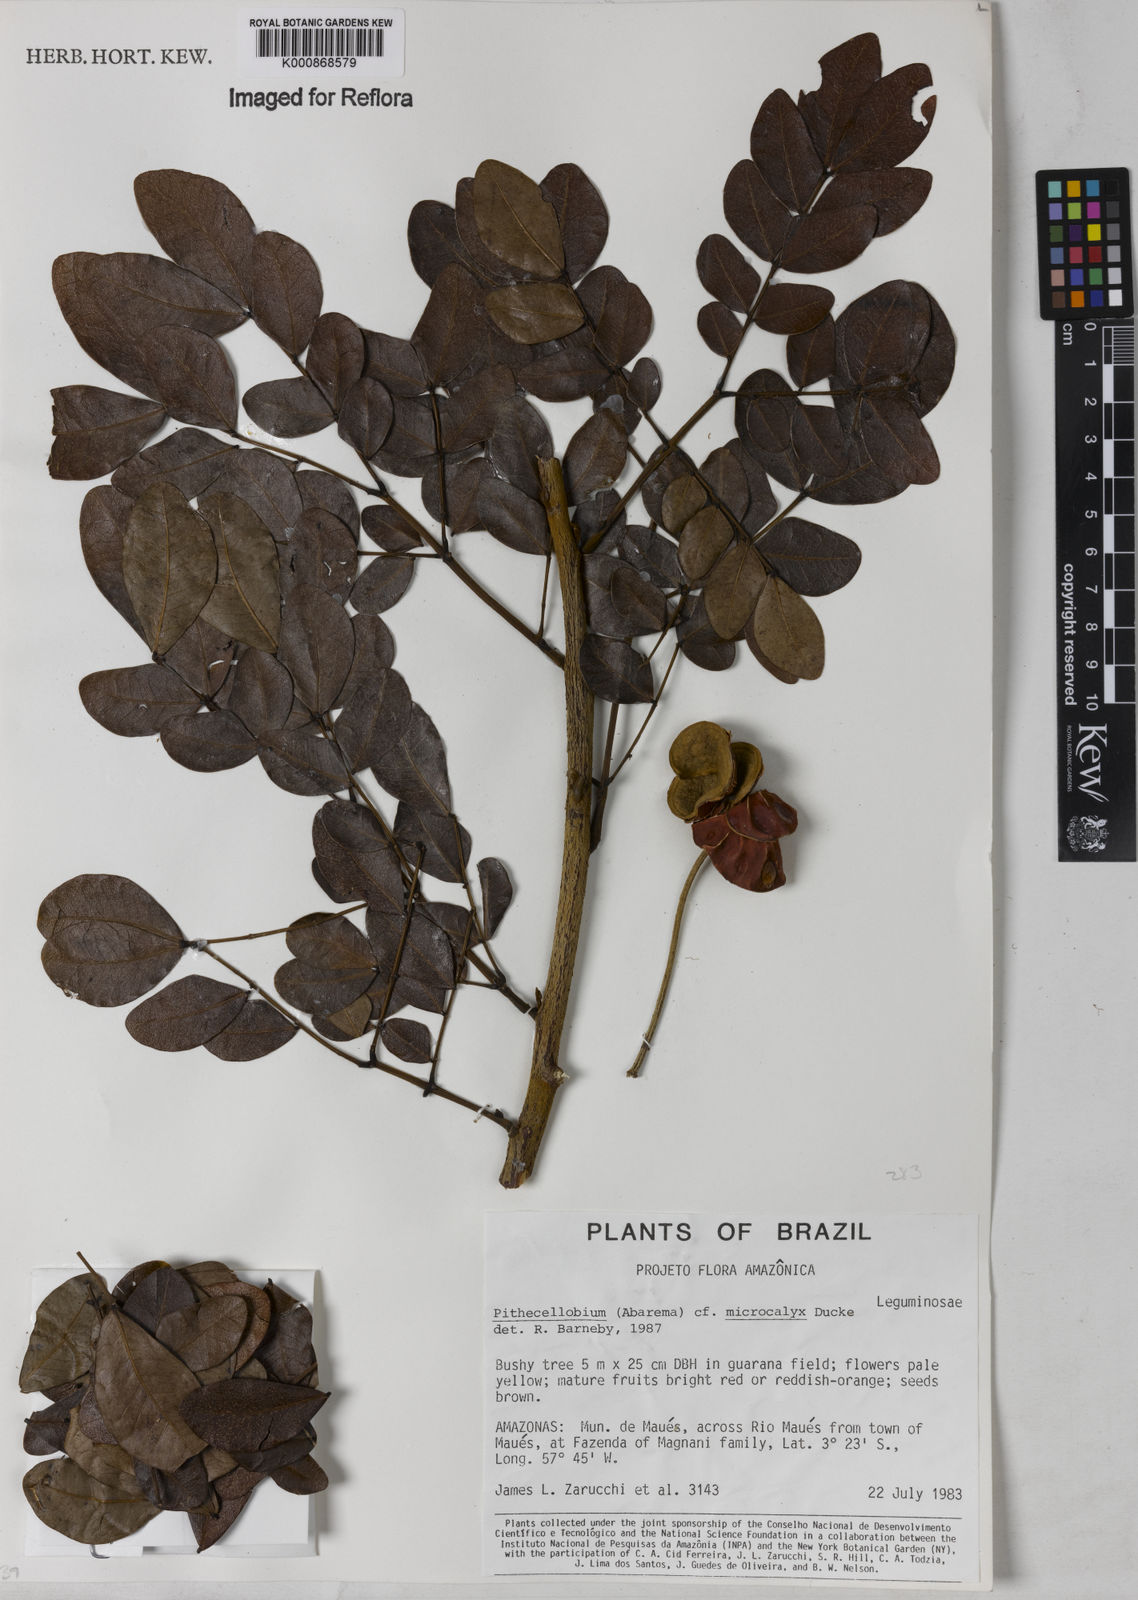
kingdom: Plantae
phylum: Tracheophyta
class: Magnoliopsida
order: Fabales
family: Fabaceae
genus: Jupunba
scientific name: Jupunba microcalyx
